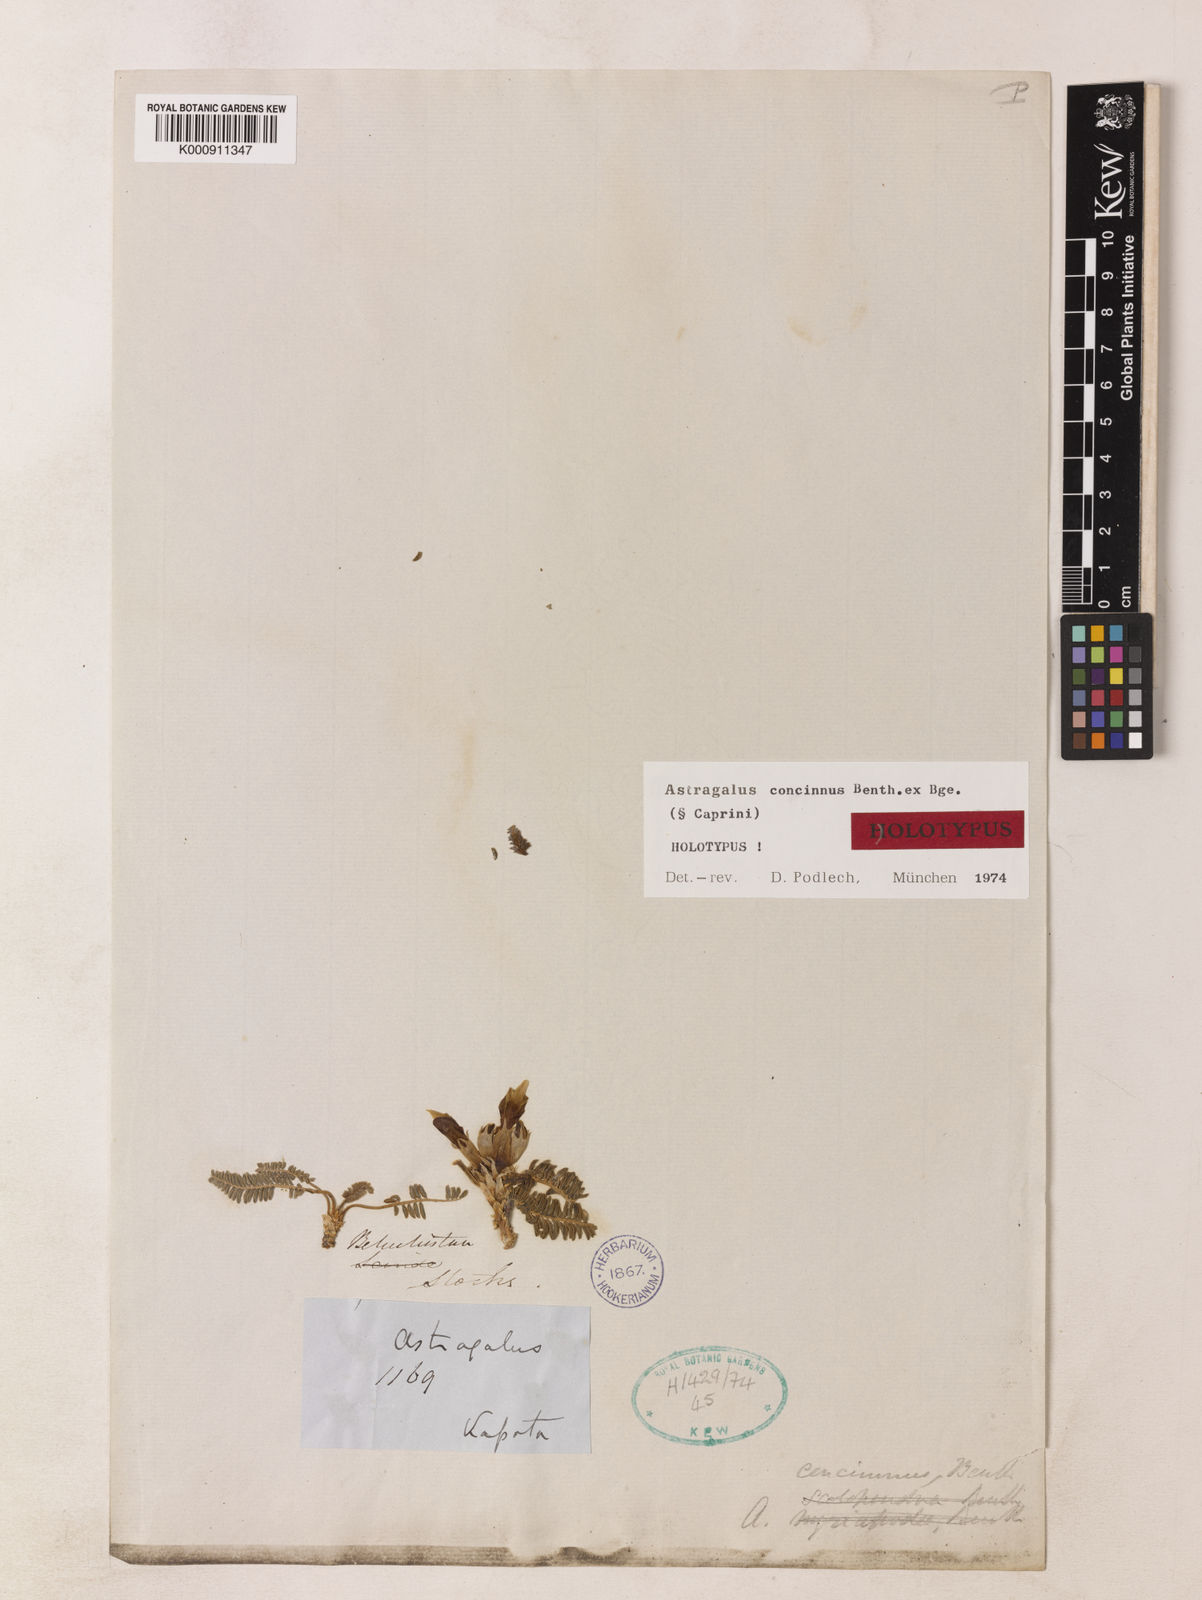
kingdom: Plantae
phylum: Tracheophyta
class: Magnoliopsida
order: Fabales
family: Fabaceae
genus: Astragalus
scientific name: Astragalus concinnus
